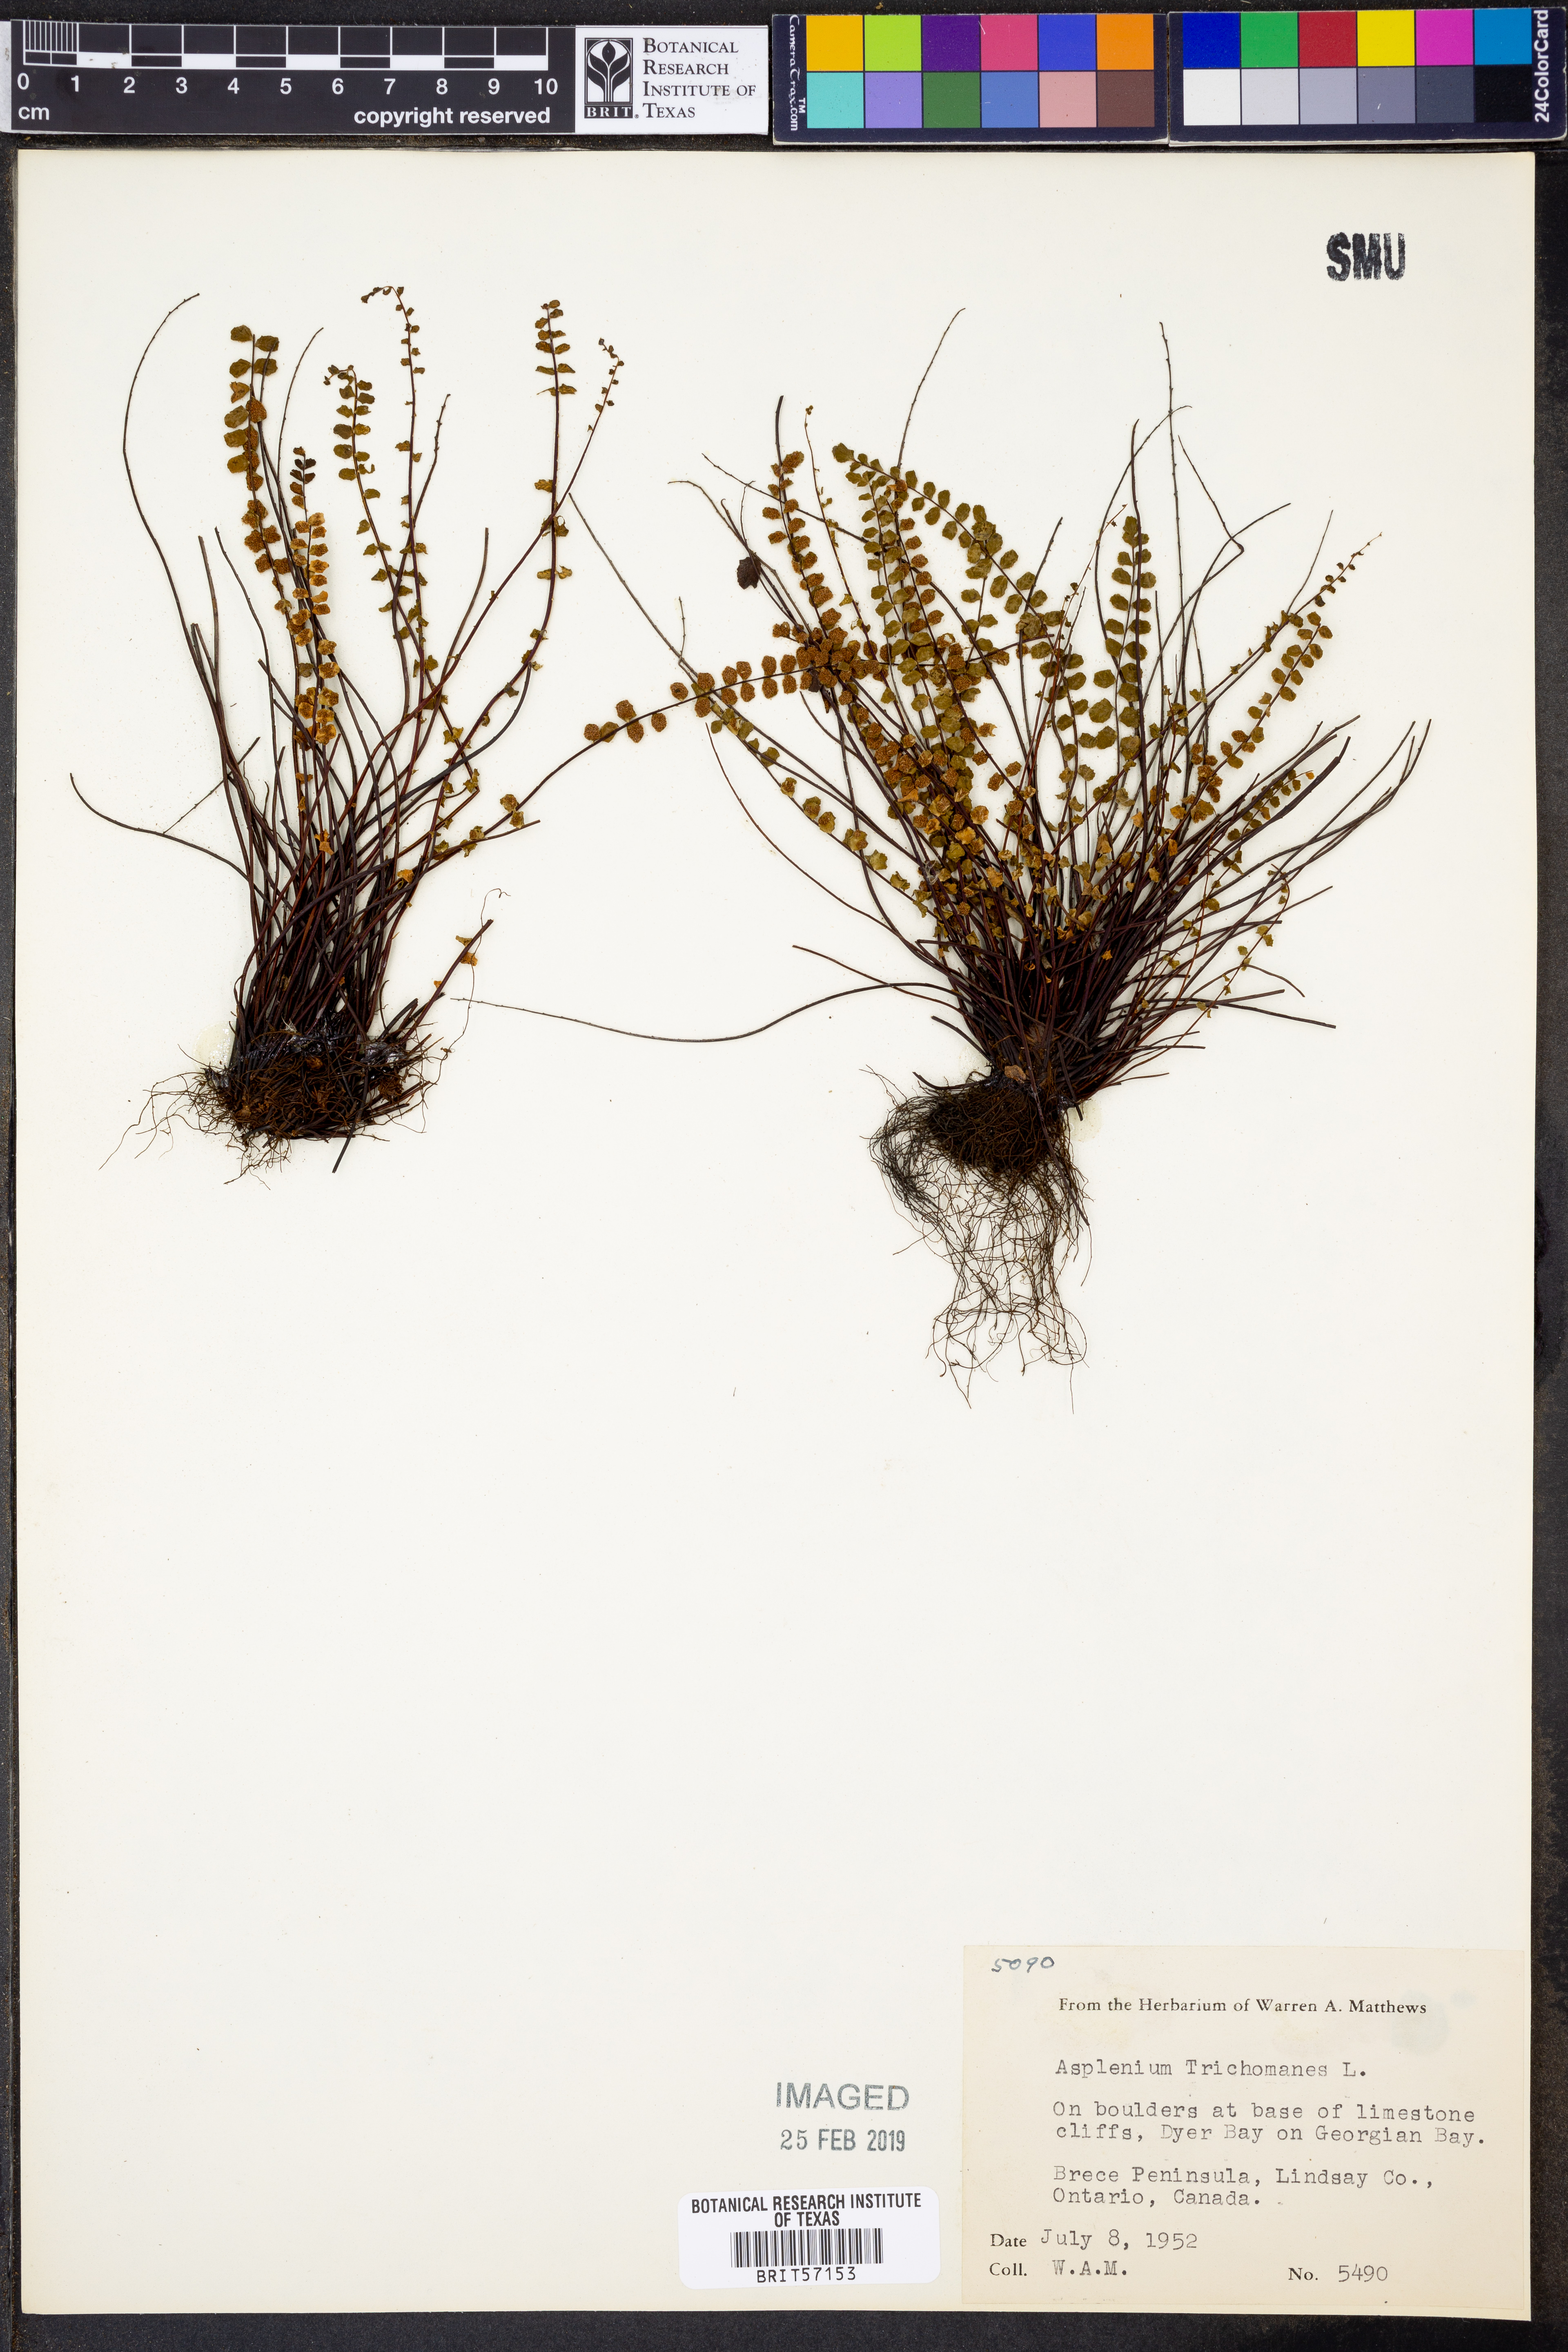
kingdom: Plantae
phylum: Tracheophyta
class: Polypodiopsida
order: Polypodiales
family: Aspleniaceae
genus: Asplenium
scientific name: Asplenium trichomanes
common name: Maidenhair spleenwort
